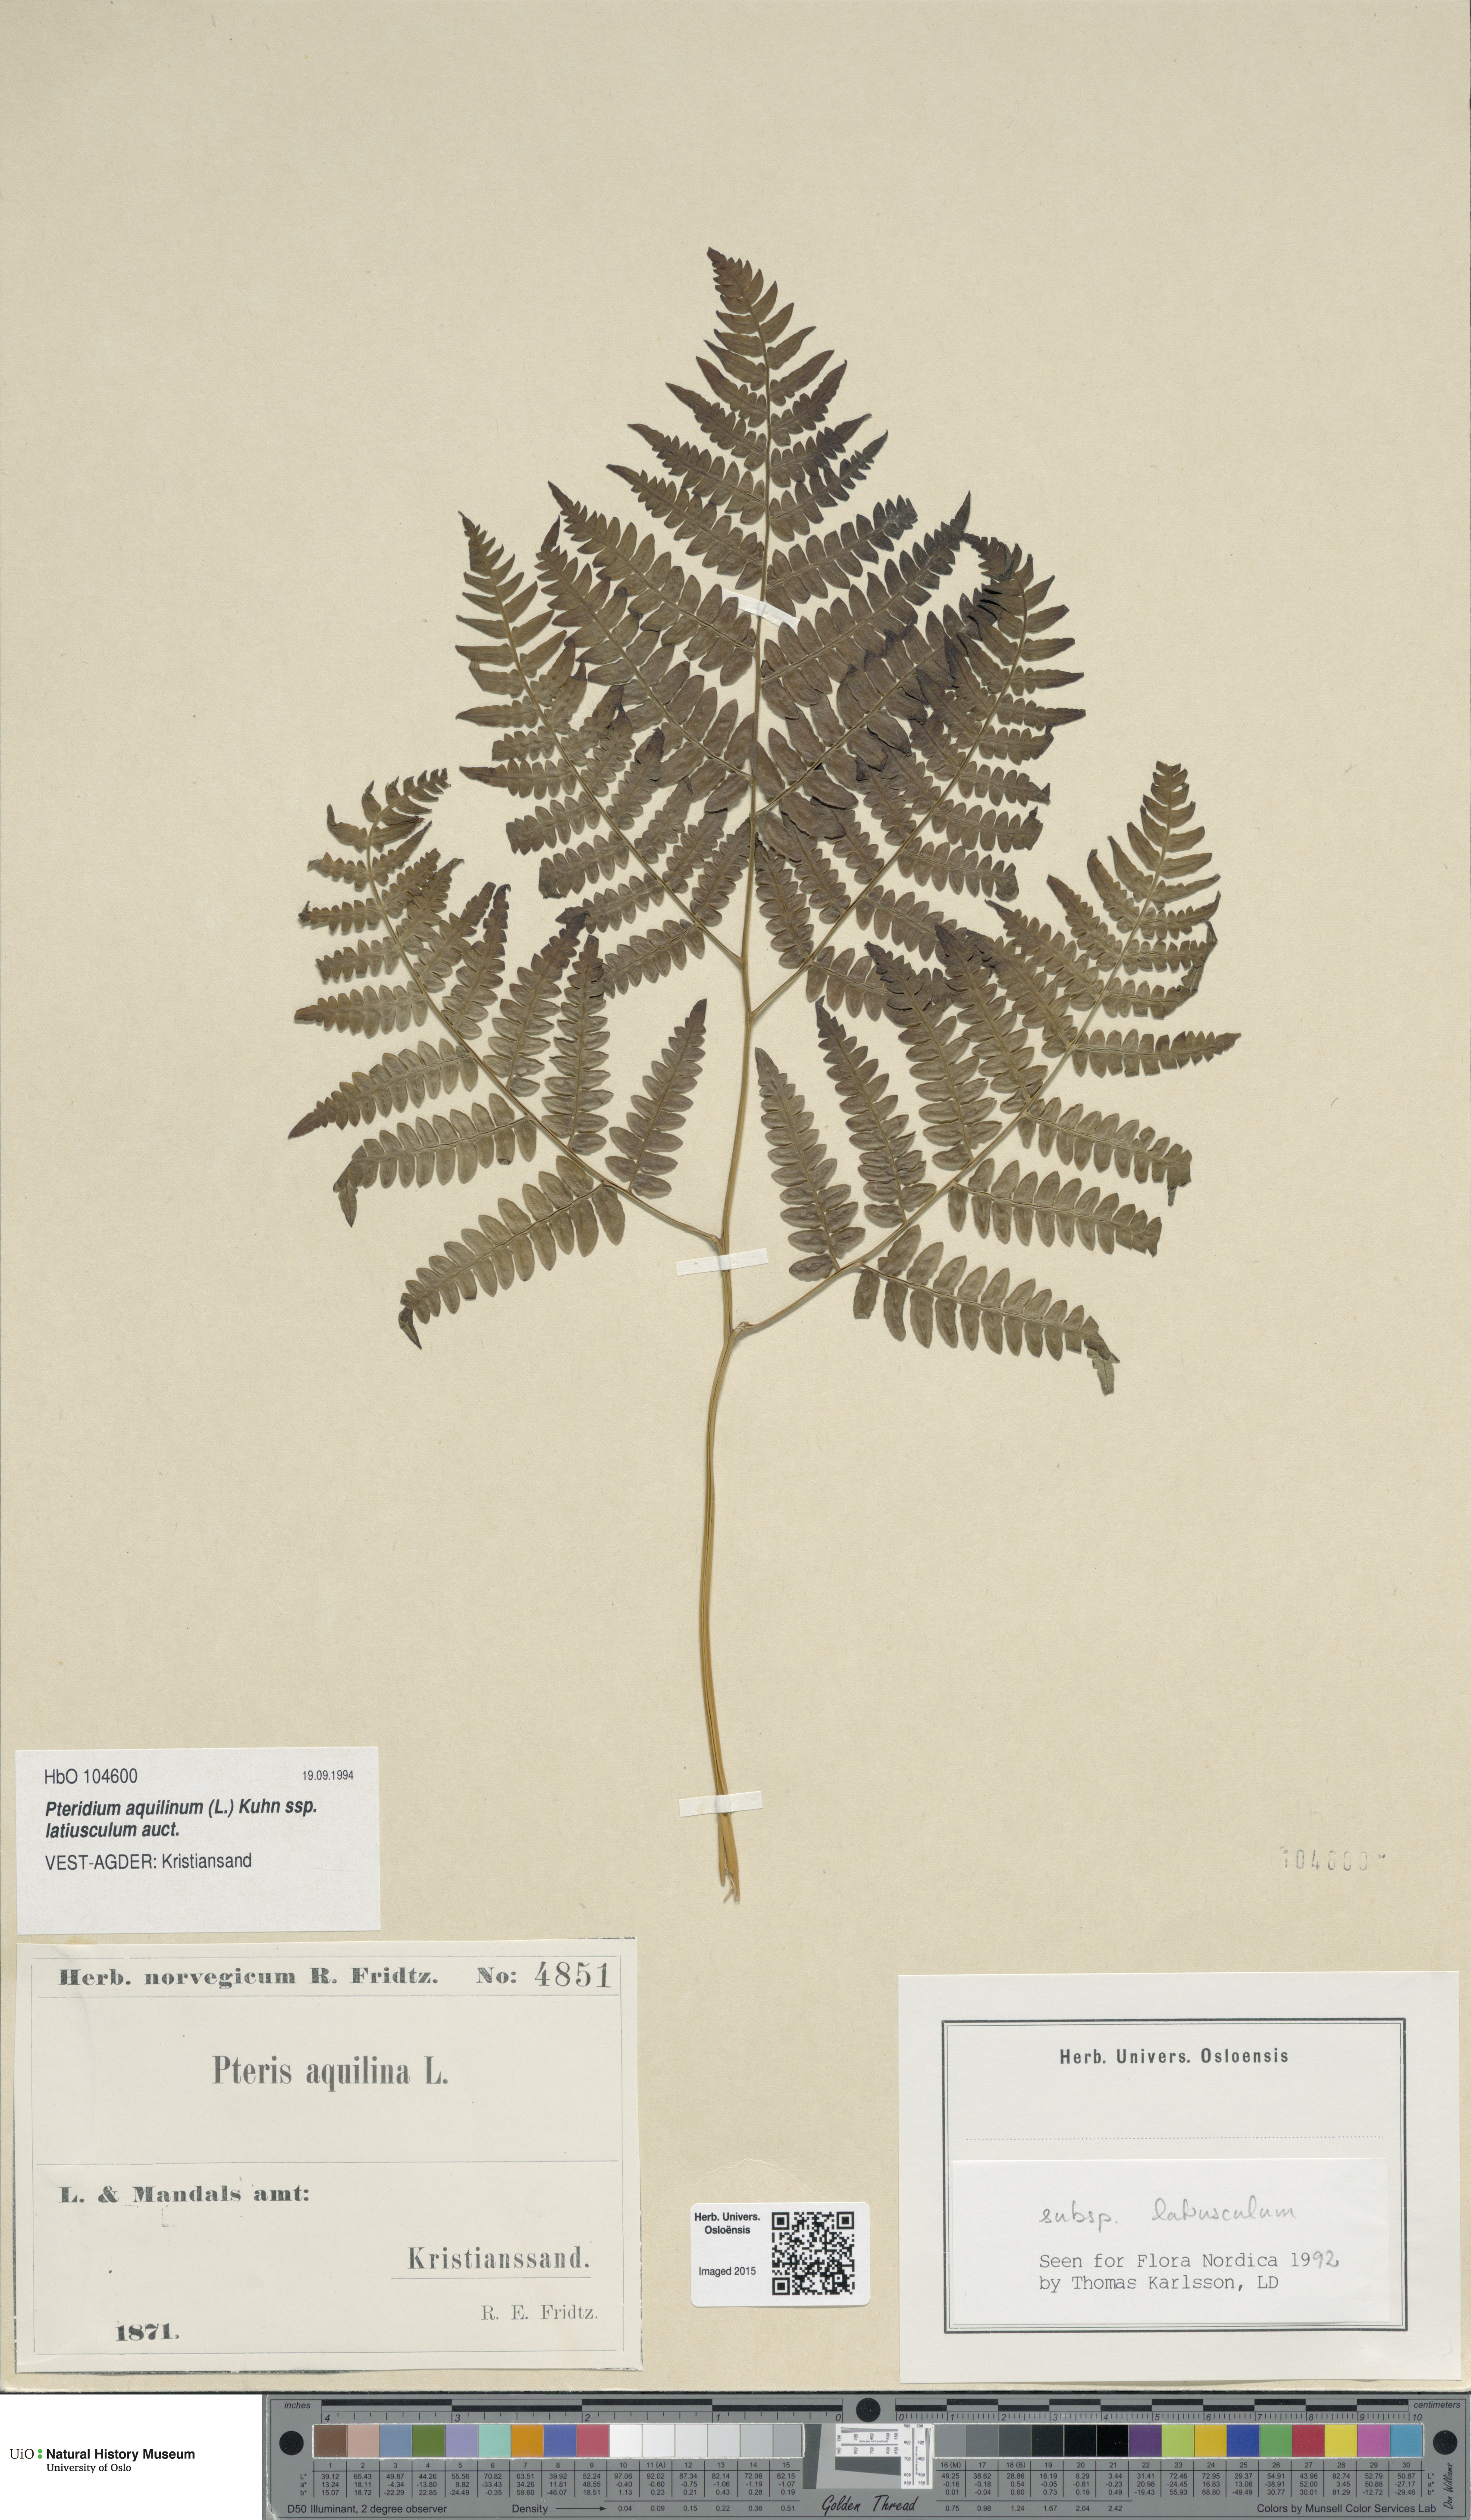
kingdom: Plantae
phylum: Tracheophyta
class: Polypodiopsida
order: Polypodiales
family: Dennstaedtiaceae
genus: Pteridium
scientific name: Pteridium aquilinum
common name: Bracken
